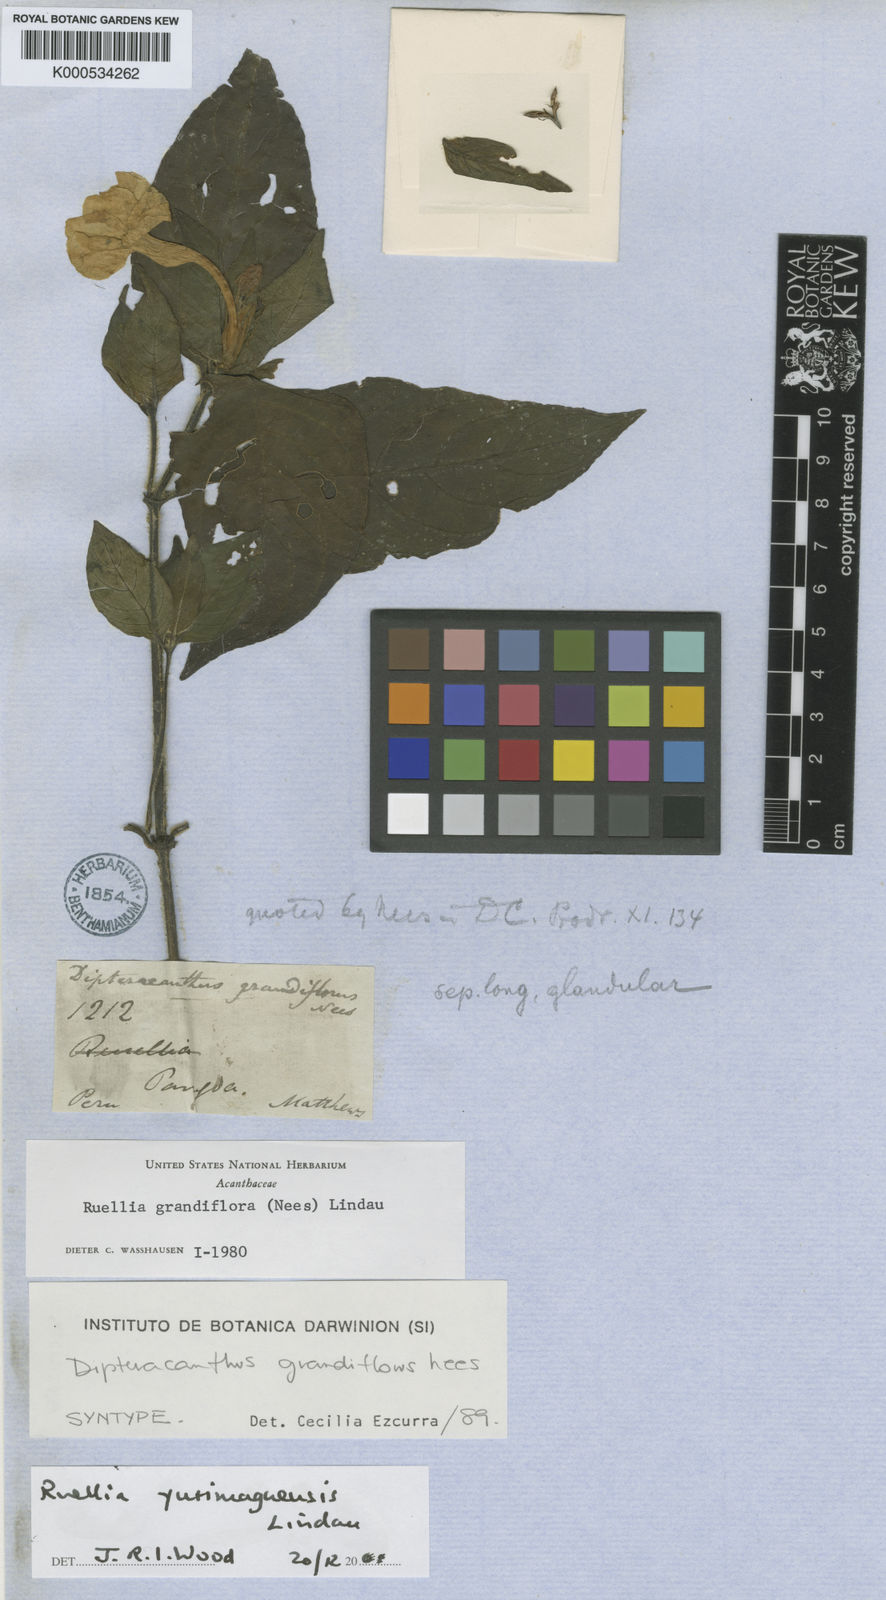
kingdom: Plantae
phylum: Tracheophyta
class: Magnoliopsida
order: Lamiales
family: Acanthaceae
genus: Ruellia
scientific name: Ruellia yurimaguensis
